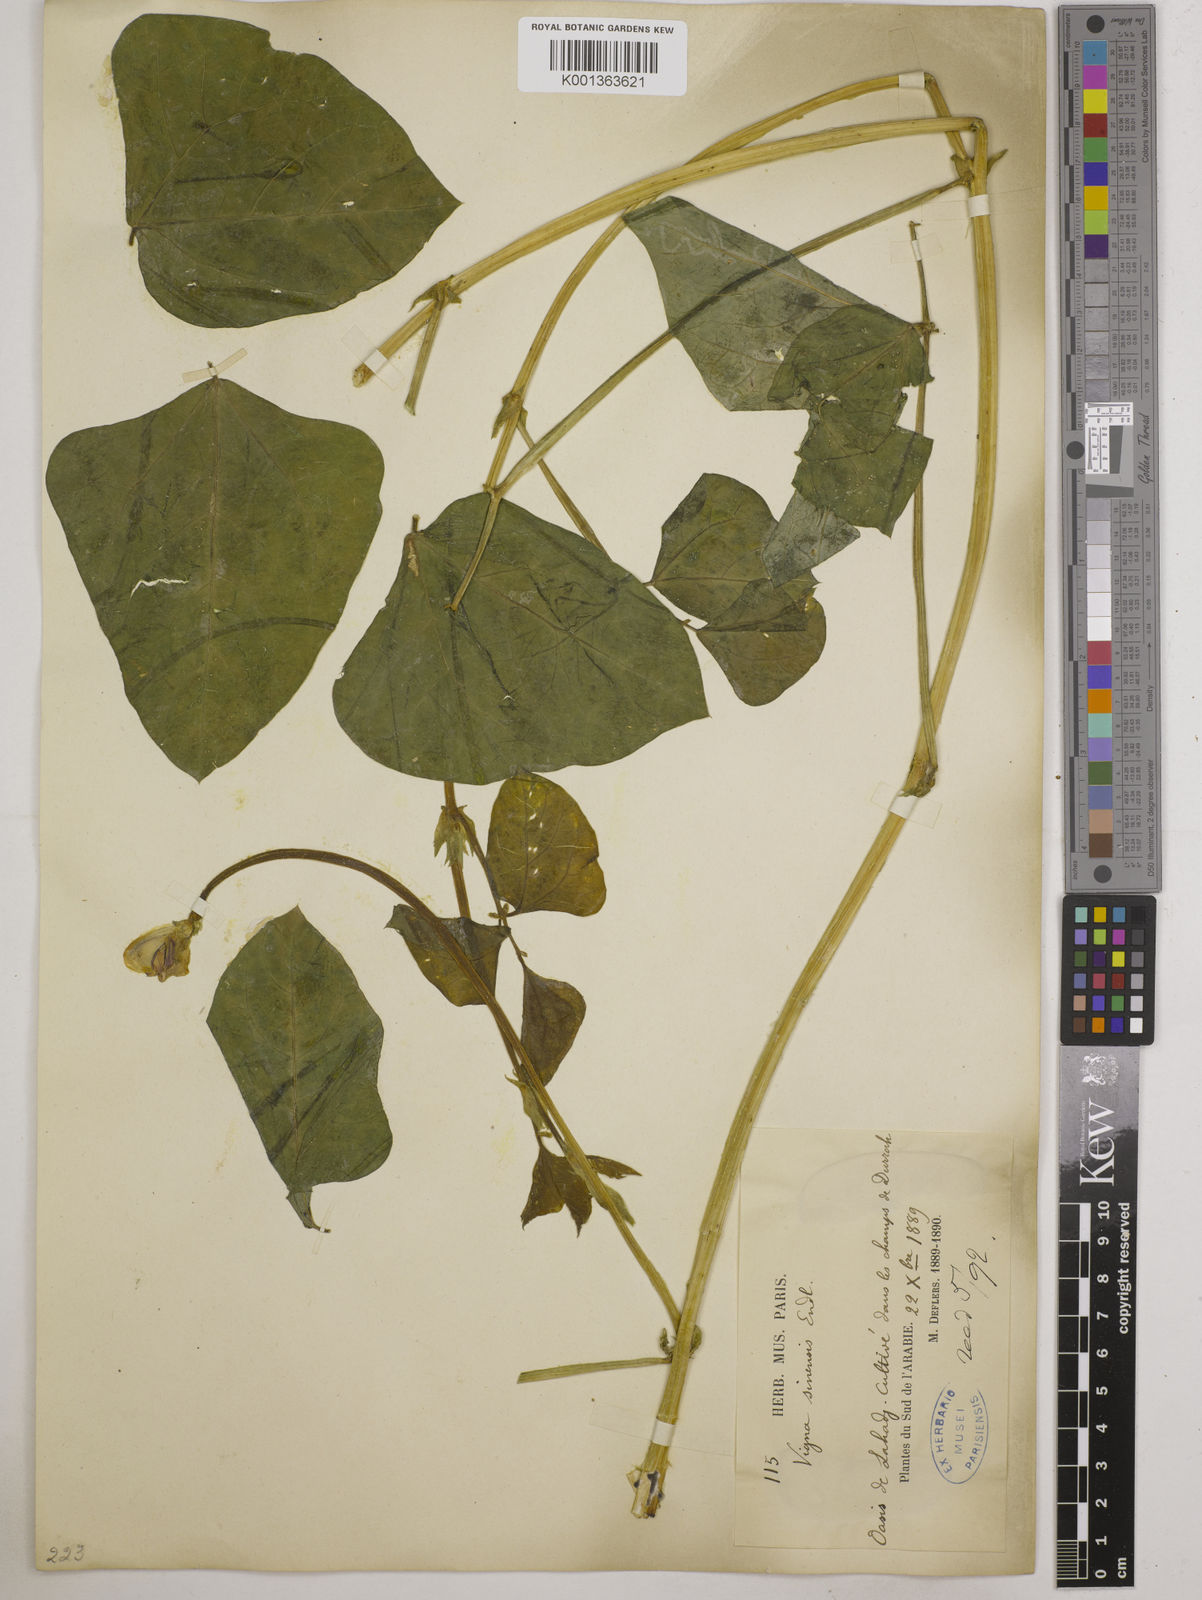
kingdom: Plantae
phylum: Tracheophyta
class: Magnoliopsida
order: Fabales
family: Fabaceae
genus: Vigna
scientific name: Vigna unguiculata
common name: Cowpea
